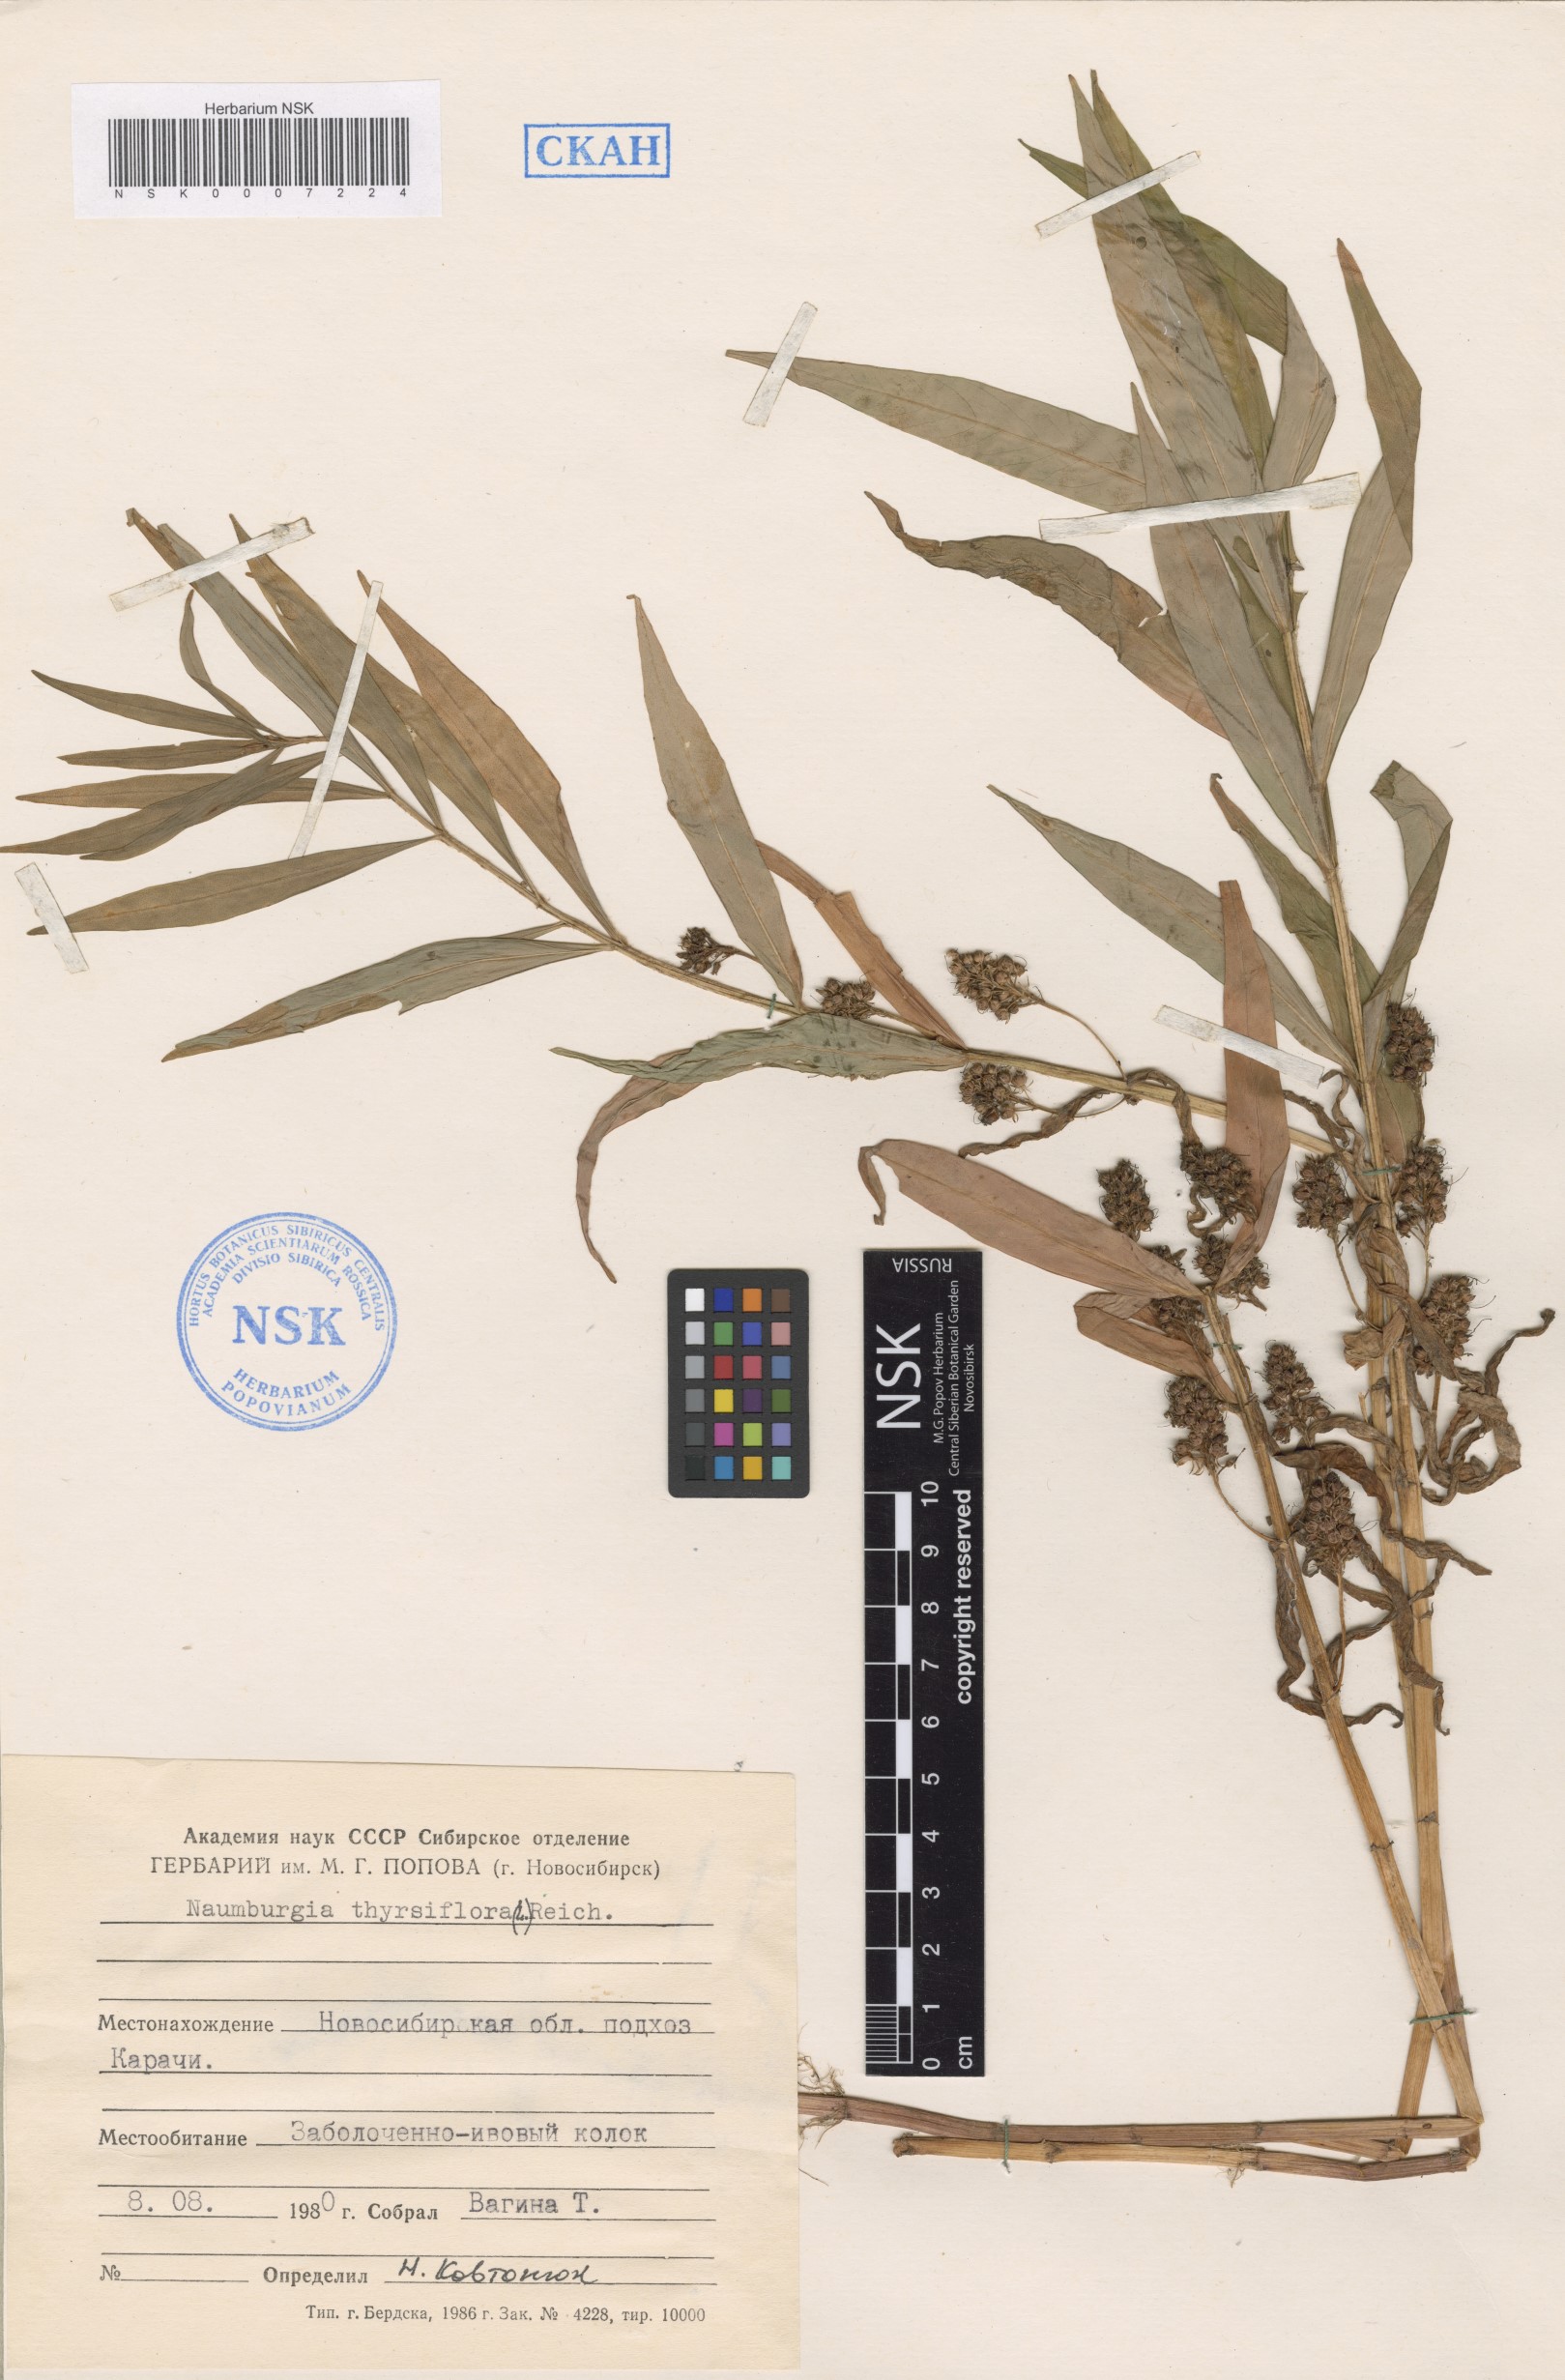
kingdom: Plantae
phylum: Tracheophyta
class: Magnoliopsida
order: Ericales
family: Primulaceae
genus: Lysimachia
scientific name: Lysimachia thyrsiflora
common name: Tufted loosestrife
